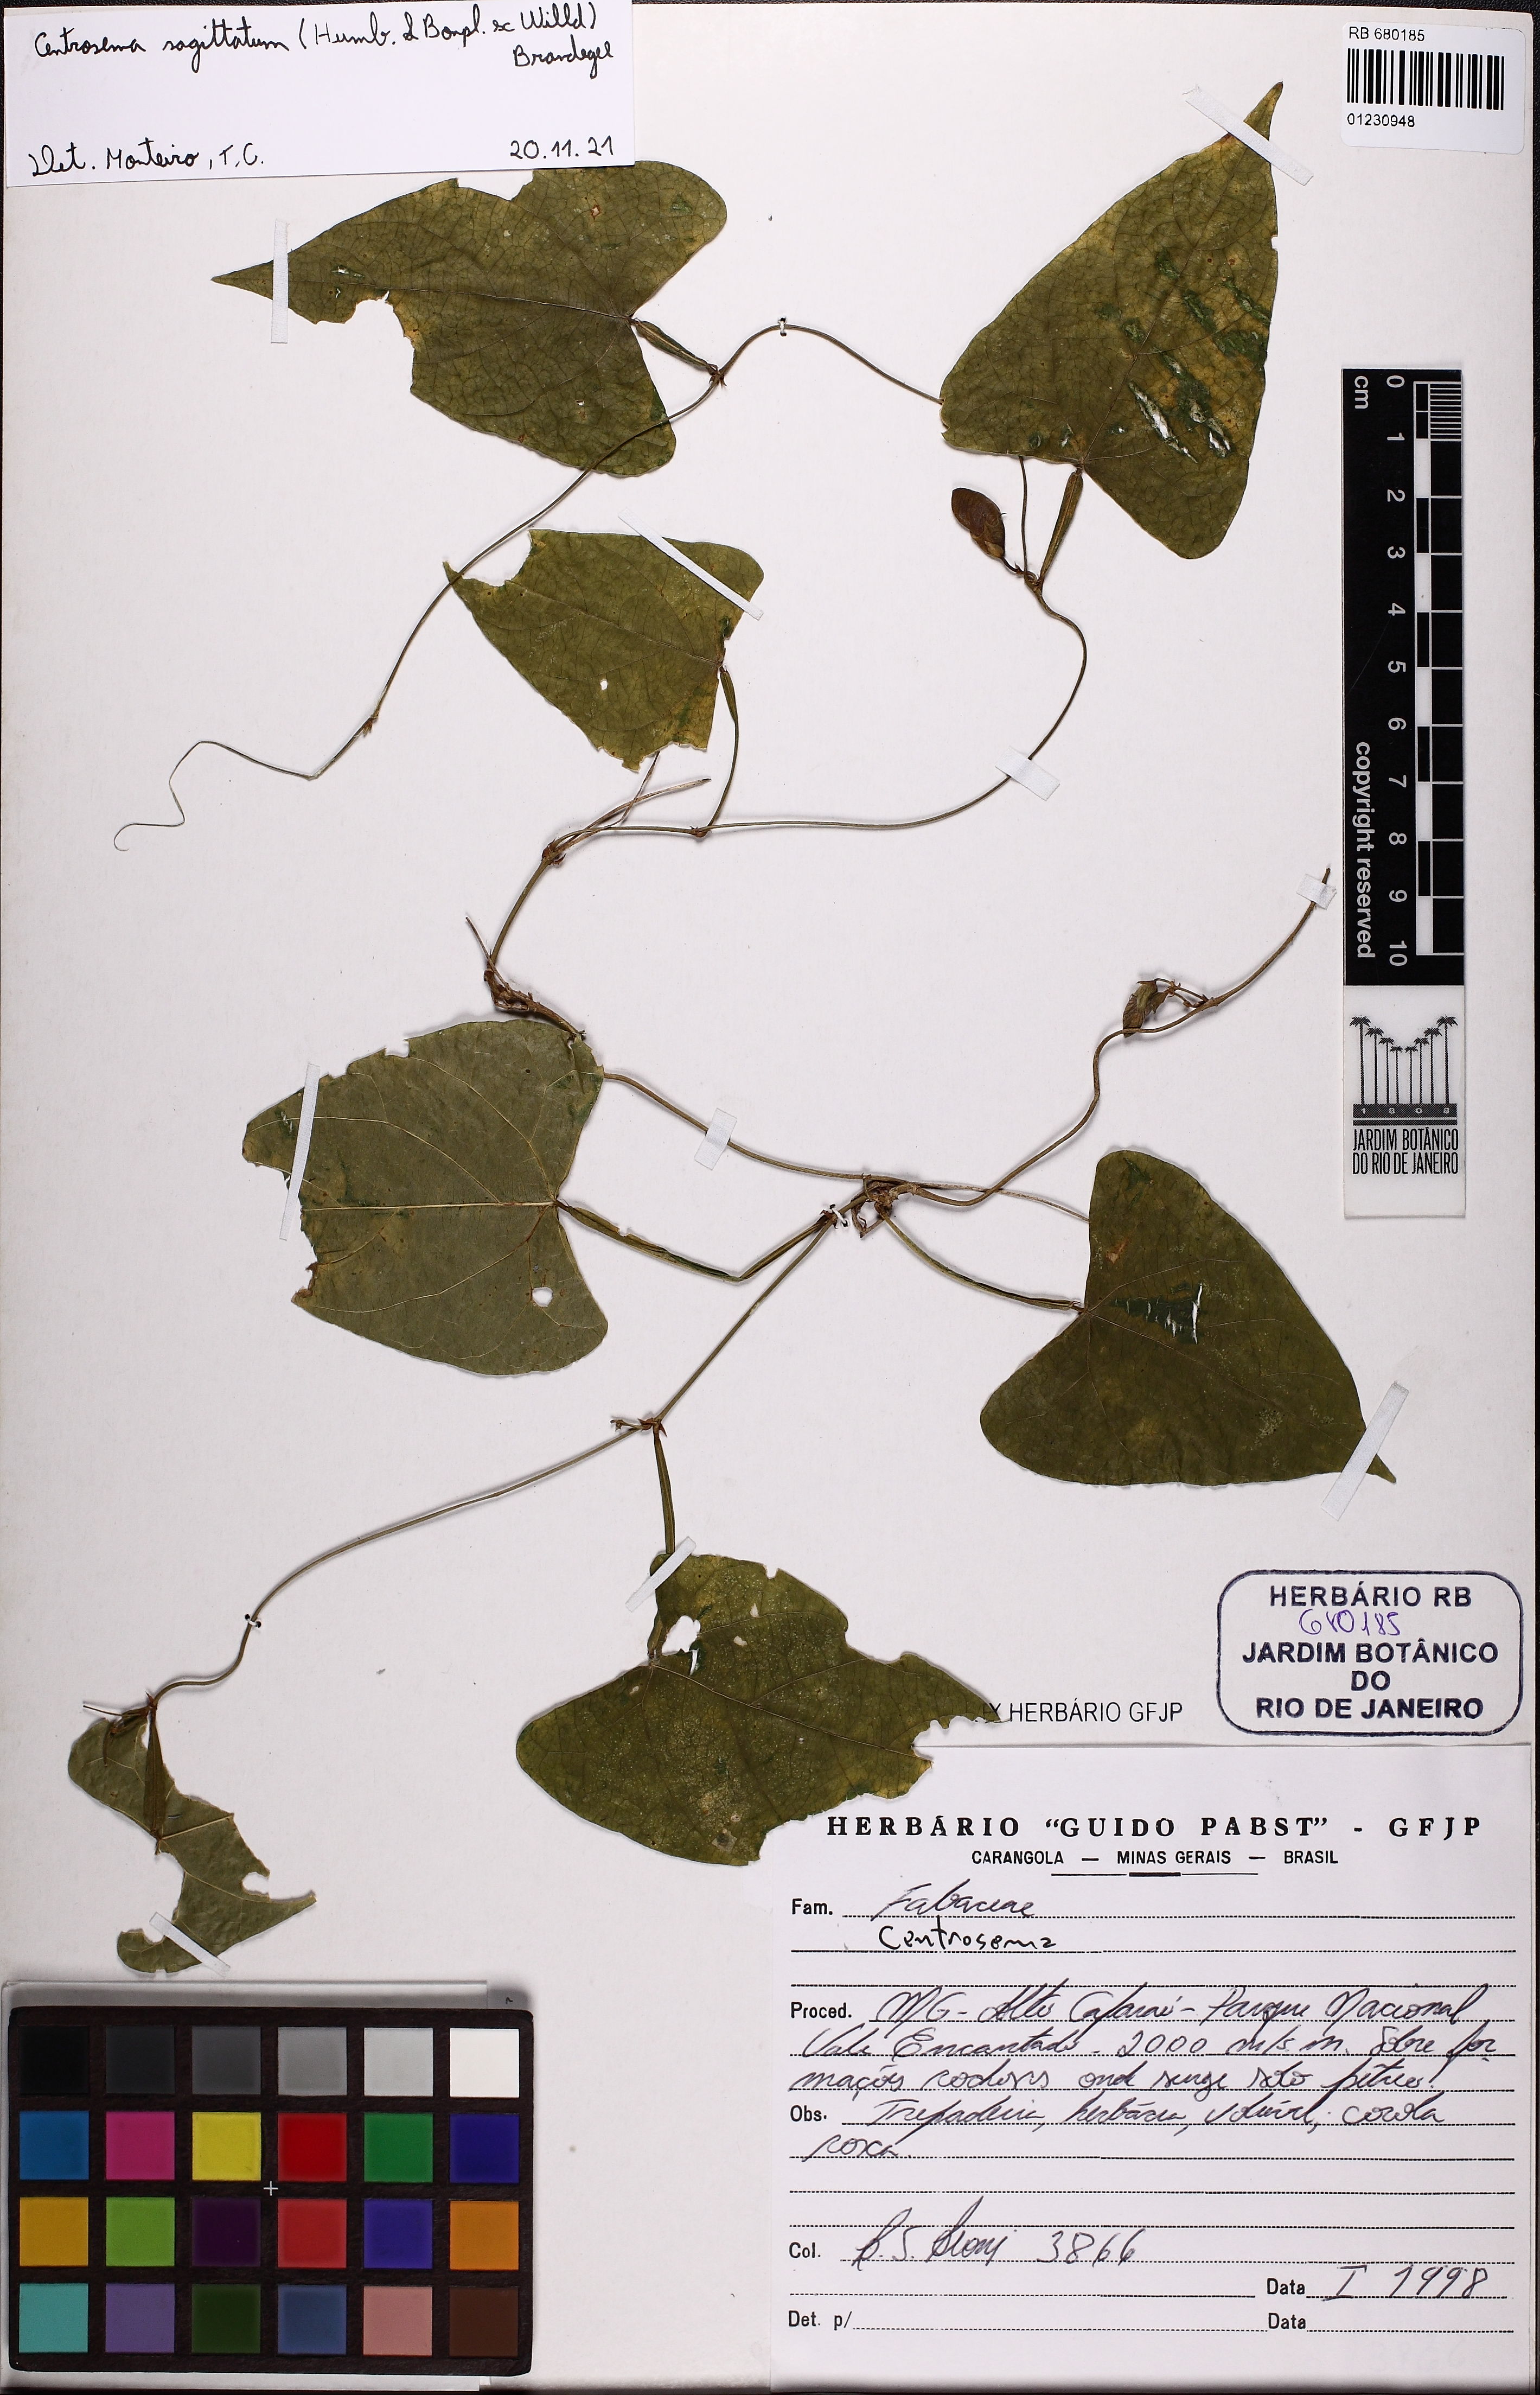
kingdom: Plantae
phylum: Tracheophyta
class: Magnoliopsida
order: Fabales
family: Fabaceae
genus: Centrosema
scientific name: Centrosema sagittatum
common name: Arrowleaf butterfly pea
